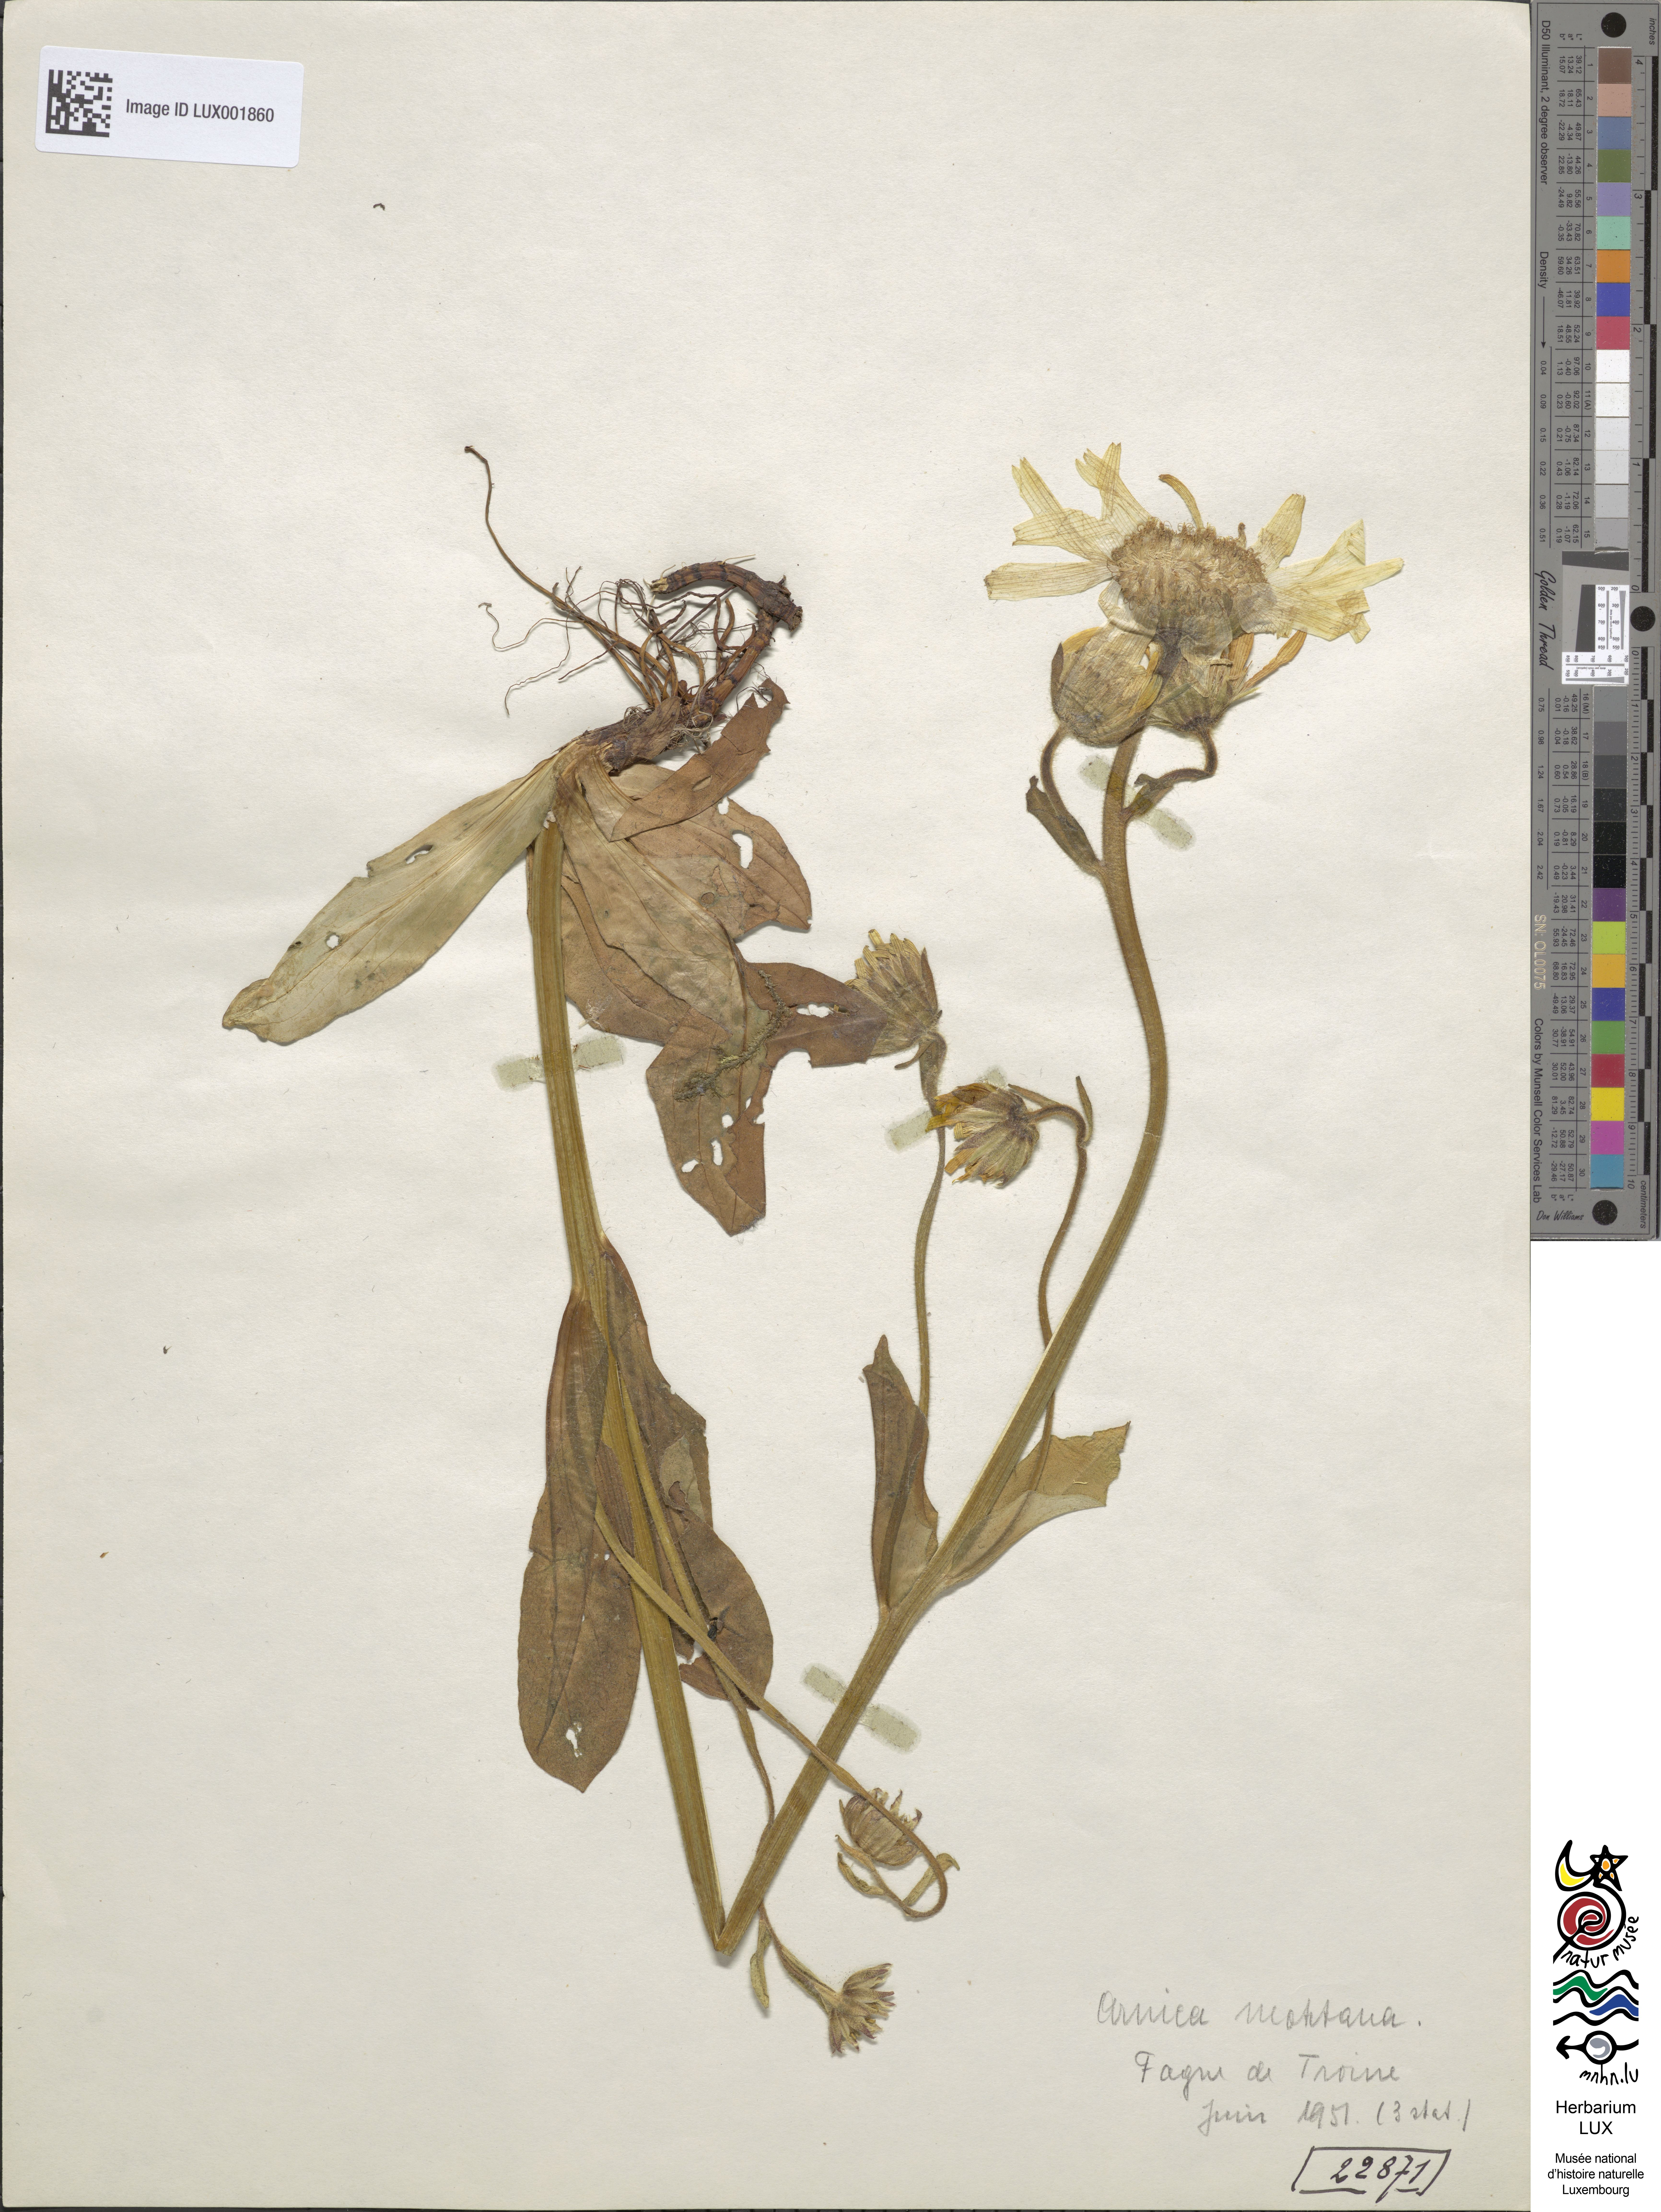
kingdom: Plantae
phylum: Tracheophyta
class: Magnoliopsida
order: Asterales
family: Asteraceae
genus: Arnica
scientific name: Arnica montana
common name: Leopard's bane
